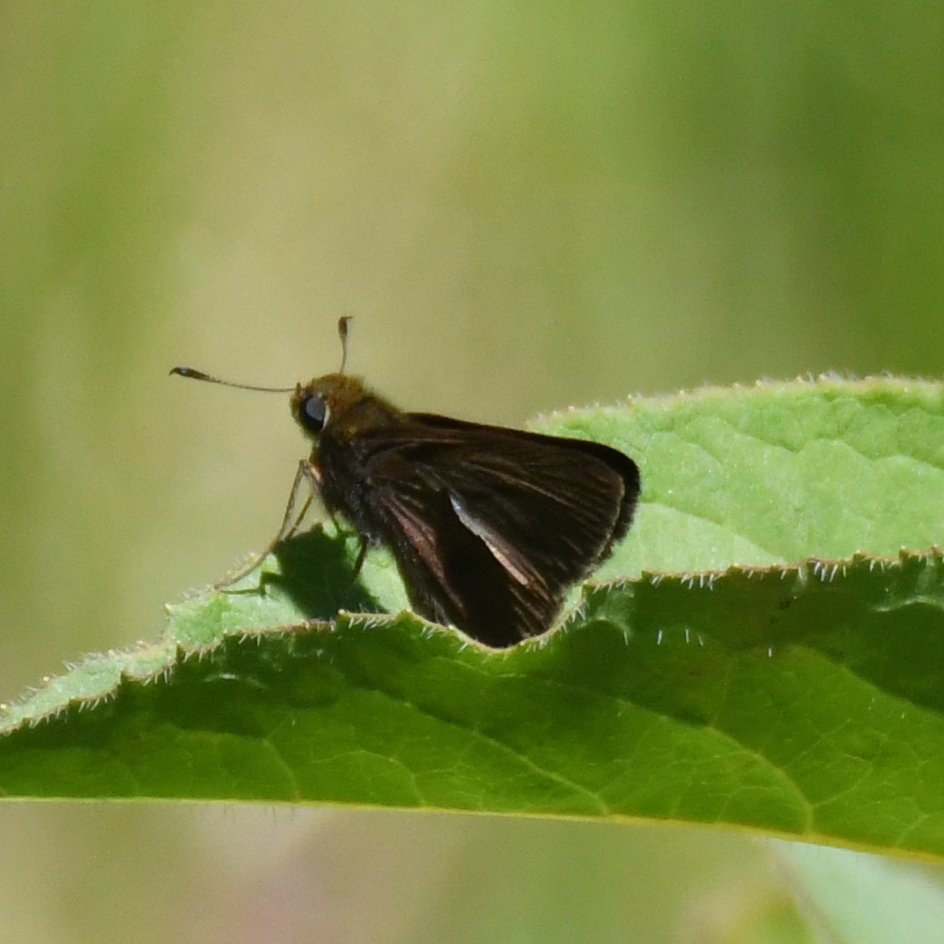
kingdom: Animalia
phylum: Arthropoda
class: Insecta
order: Lepidoptera
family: Hesperiidae
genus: Euphyes
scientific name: Euphyes vestris
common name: Dun Skipper
